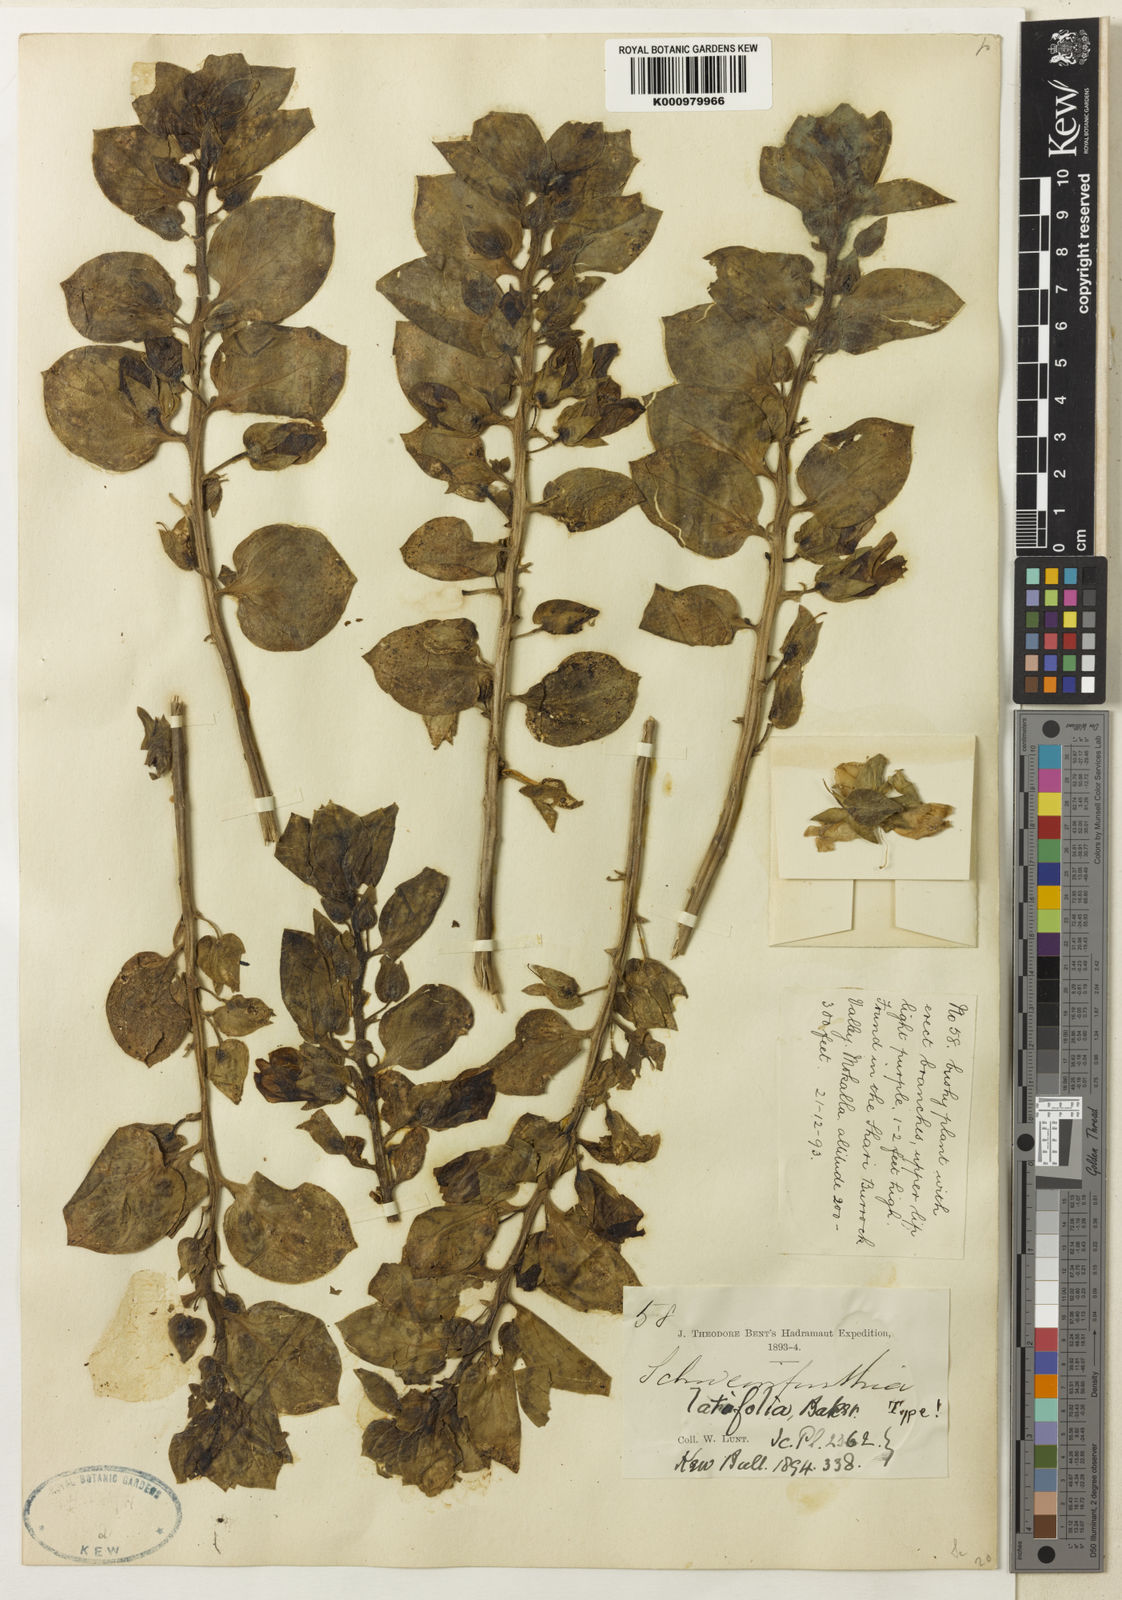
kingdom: Plantae
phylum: Tracheophyta
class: Magnoliopsida
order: Lamiales
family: Plantaginaceae
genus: Schweinfurthia
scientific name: Schweinfurthia latifolia
